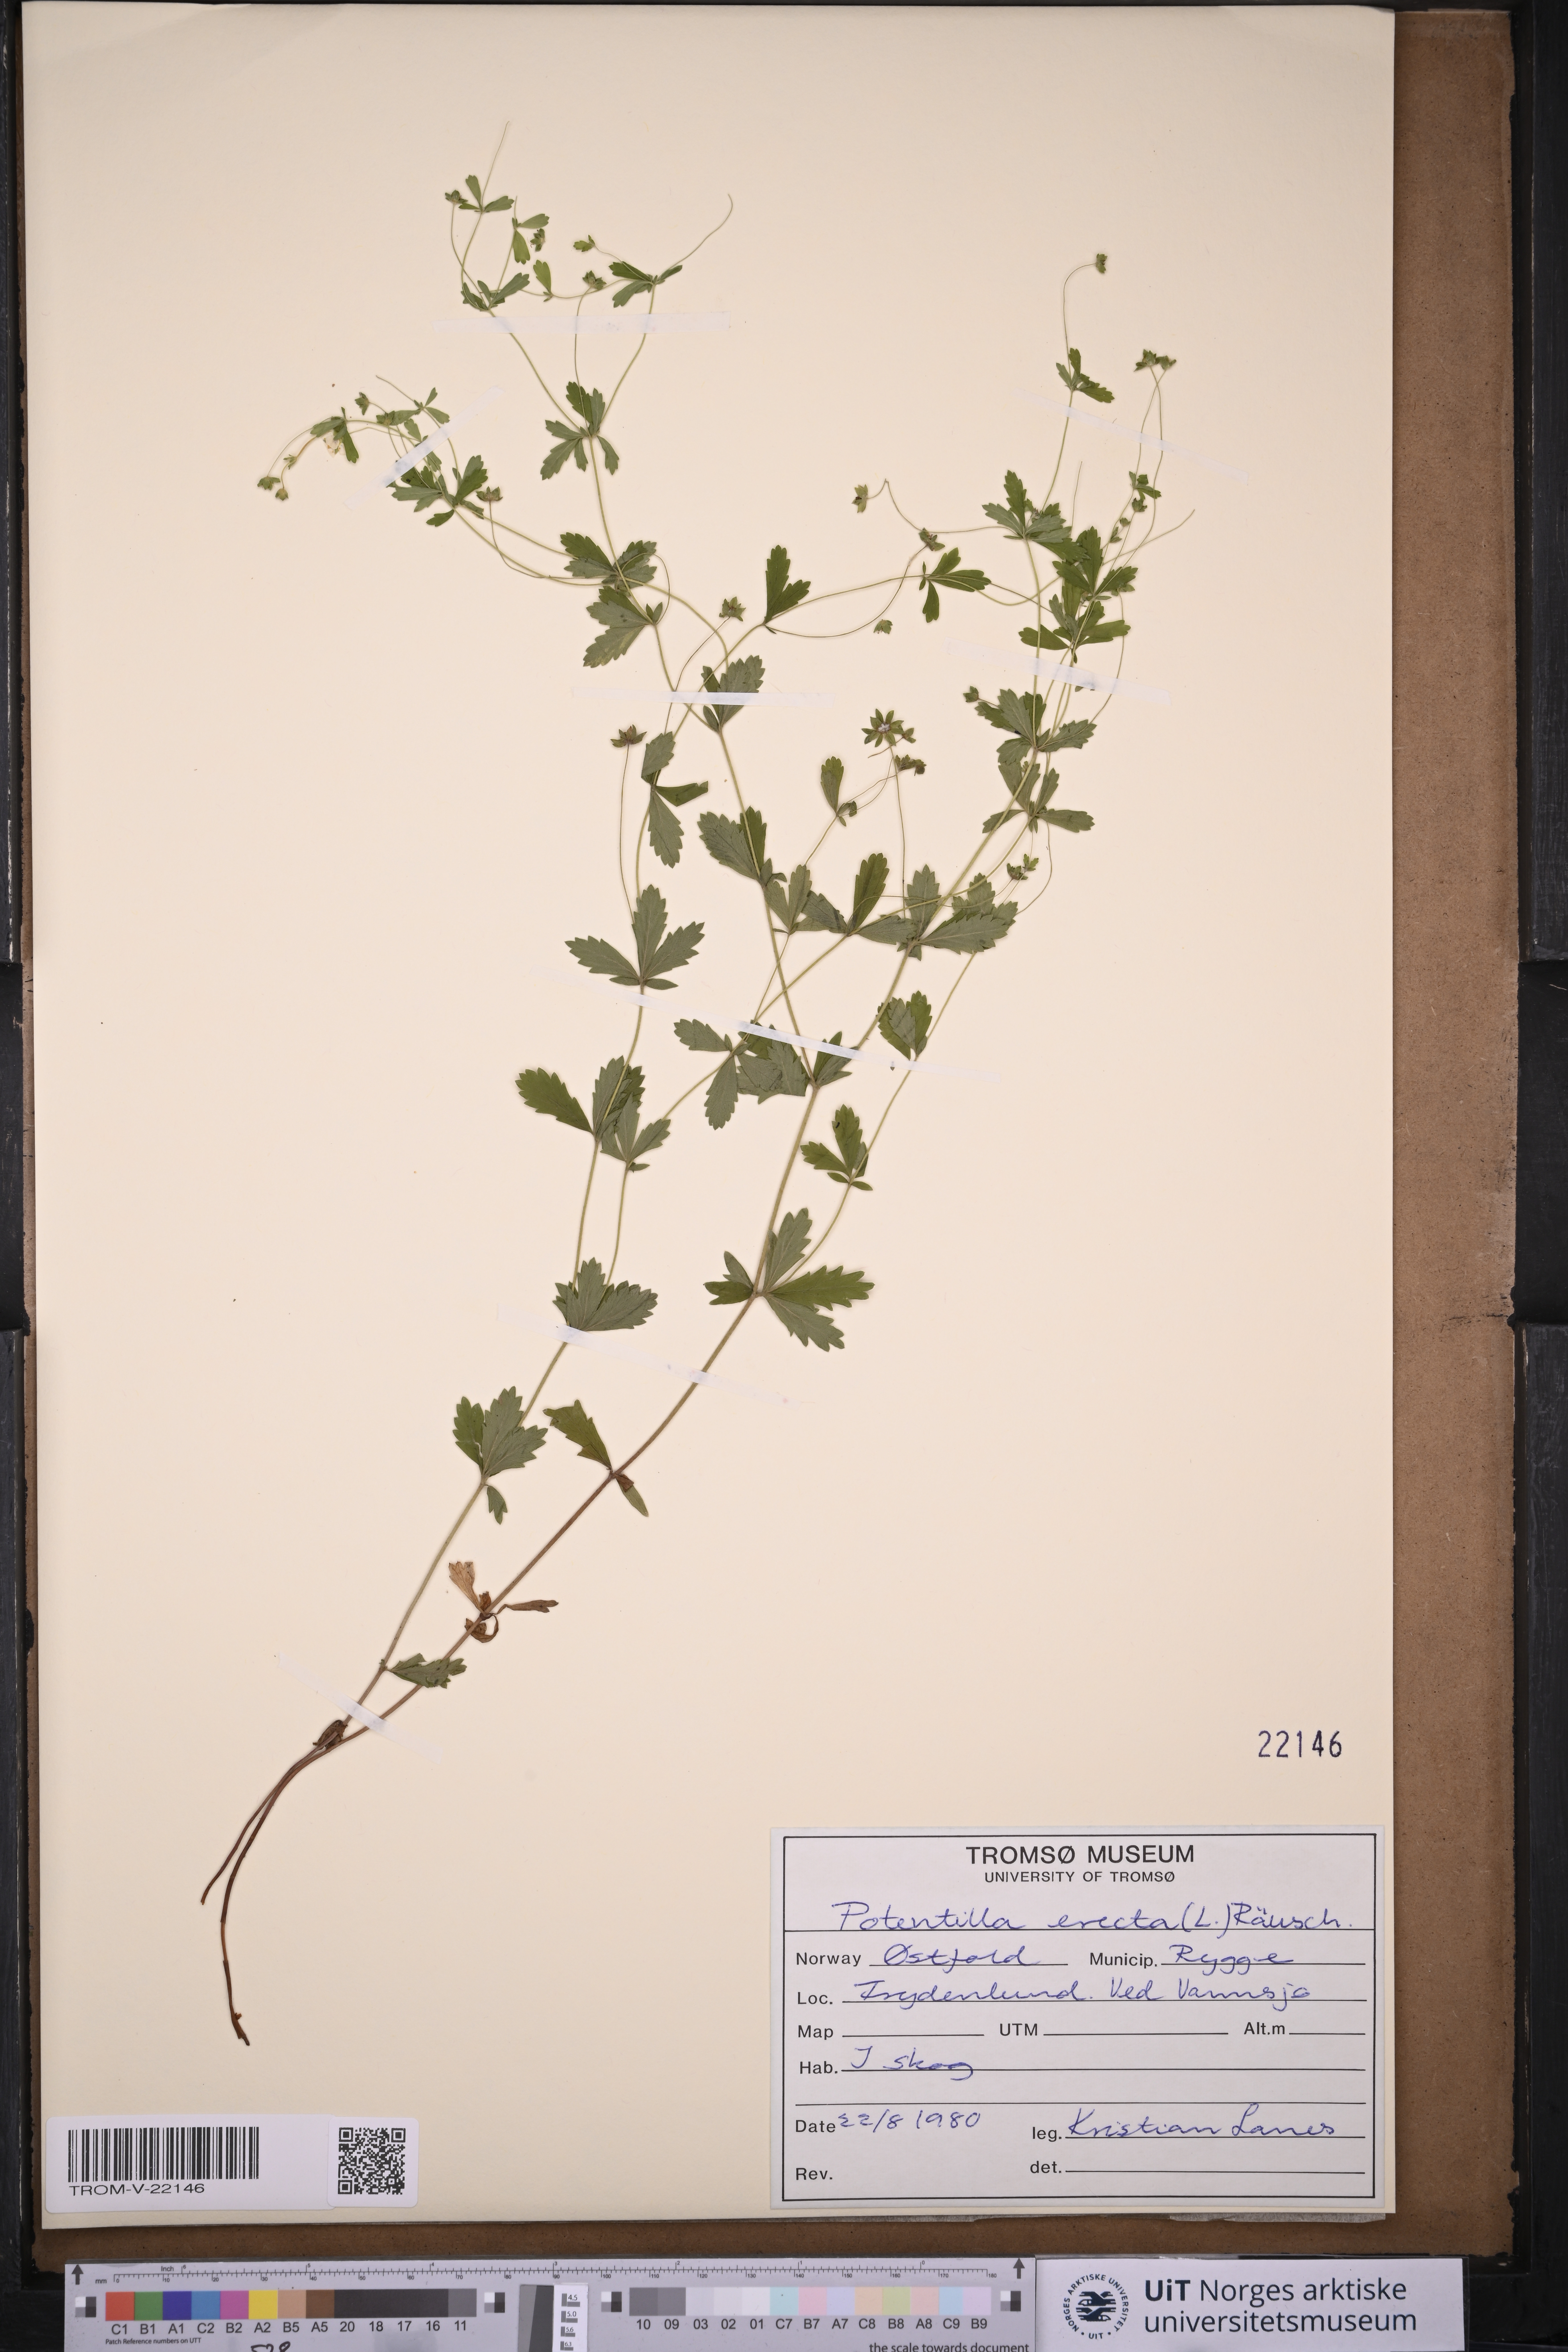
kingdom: Plantae
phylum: Tracheophyta
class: Magnoliopsida
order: Rosales
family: Rosaceae
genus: Potentilla
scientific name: Potentilla erecta
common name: Tormentil
